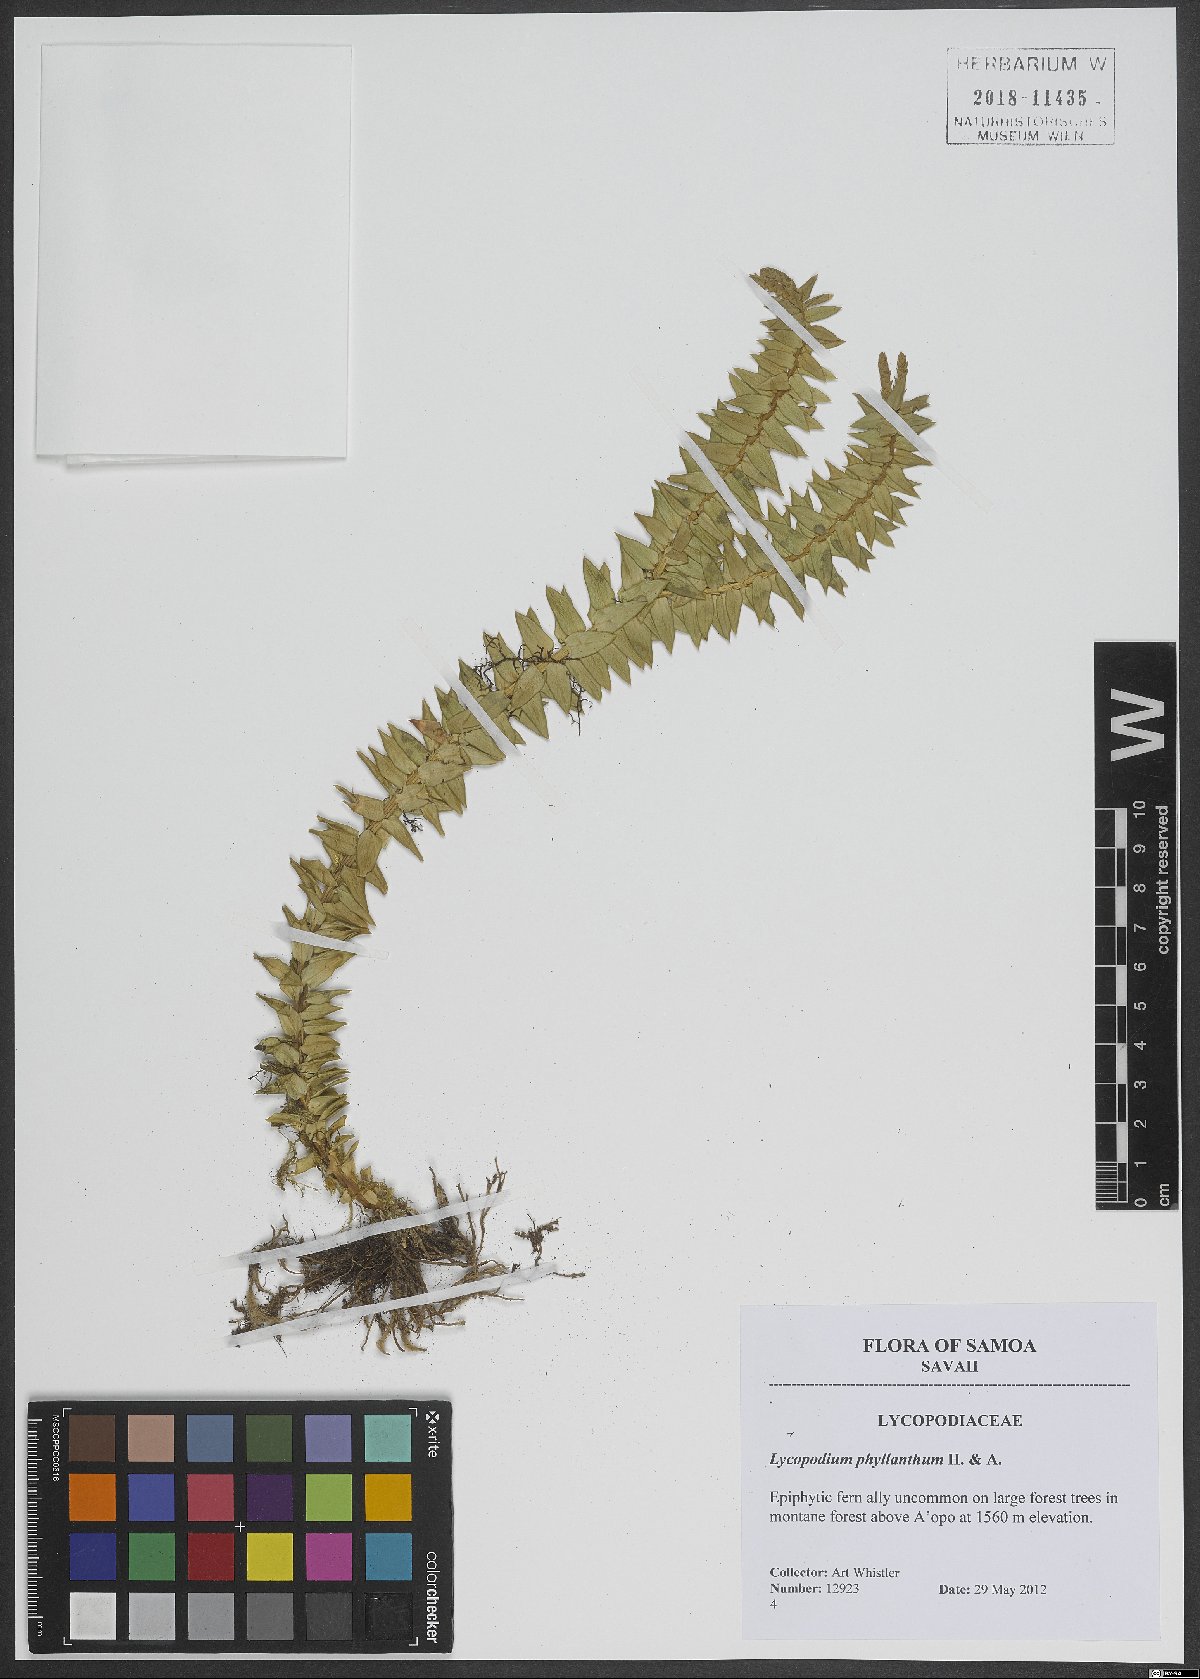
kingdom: Plantae
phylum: Tracheophyta
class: Lycopodiopsida
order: Lycopodiales
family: Lycopodiaceae
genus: Phlegmariurus
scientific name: Phlegmariurus phyllanthus
